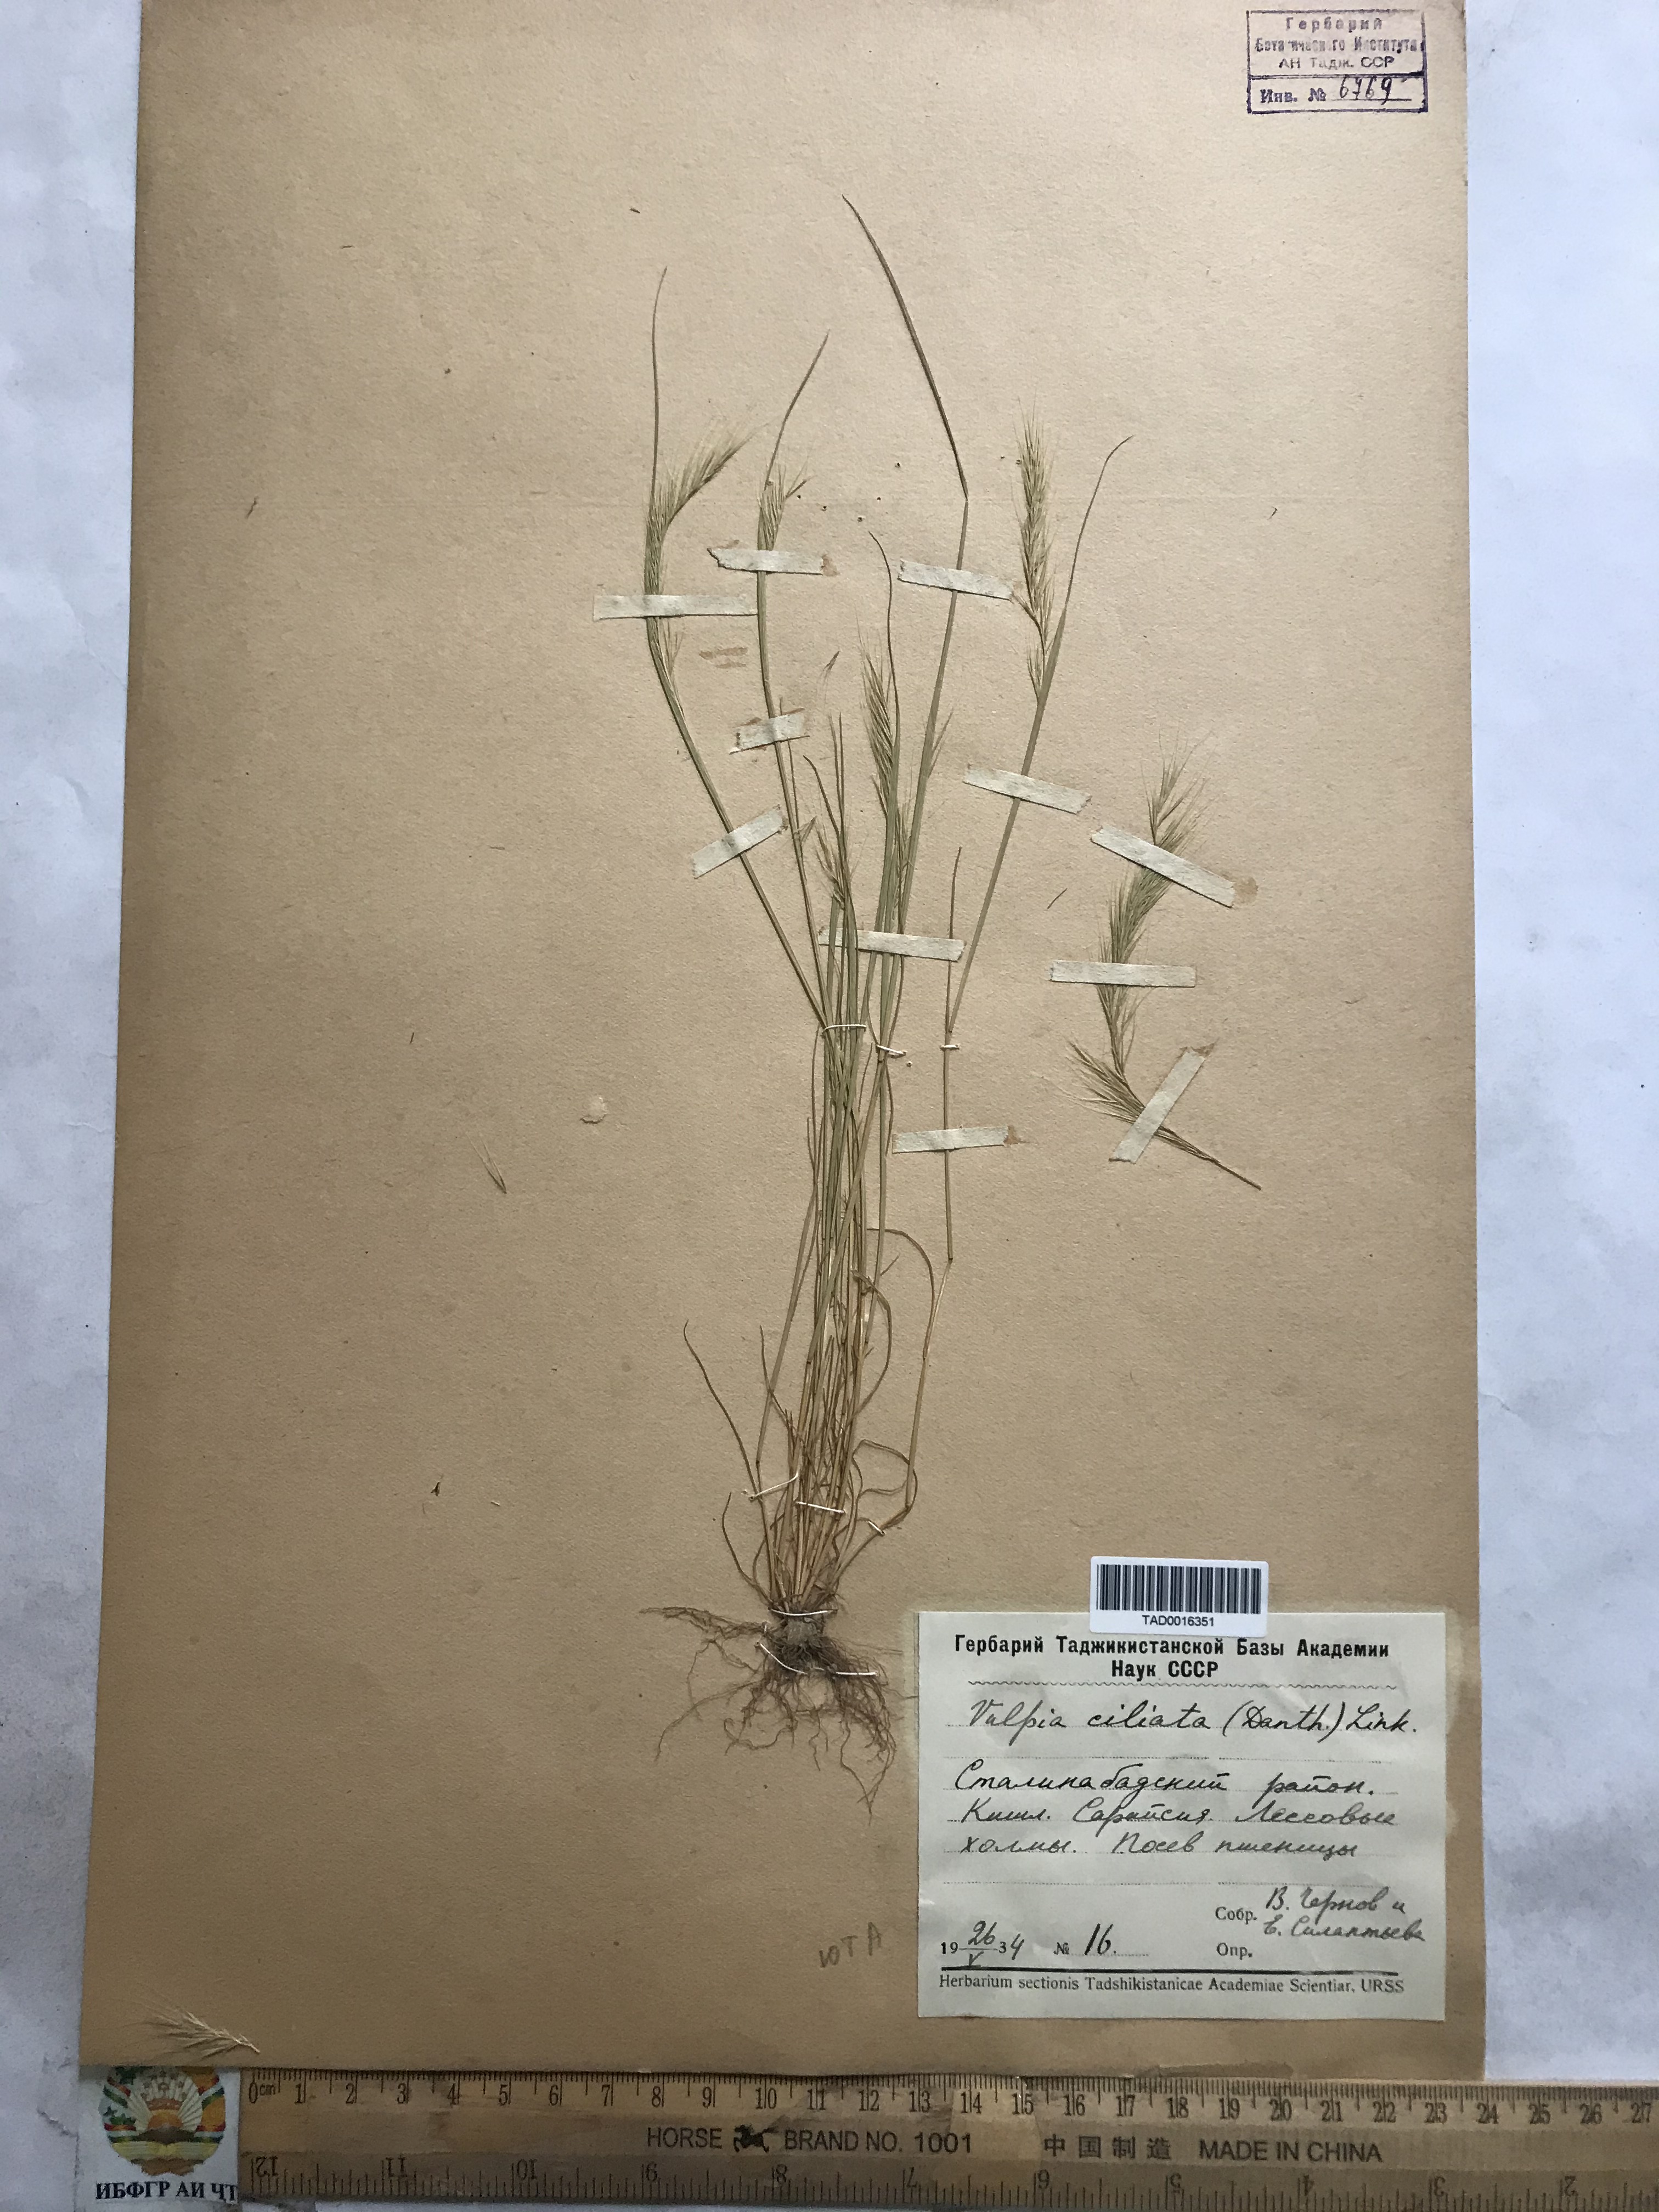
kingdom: Plantae
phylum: Tracheophyta
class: Liliopsida
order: Poales
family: Poaceae
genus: Festuca
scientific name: Festuca ambigua
